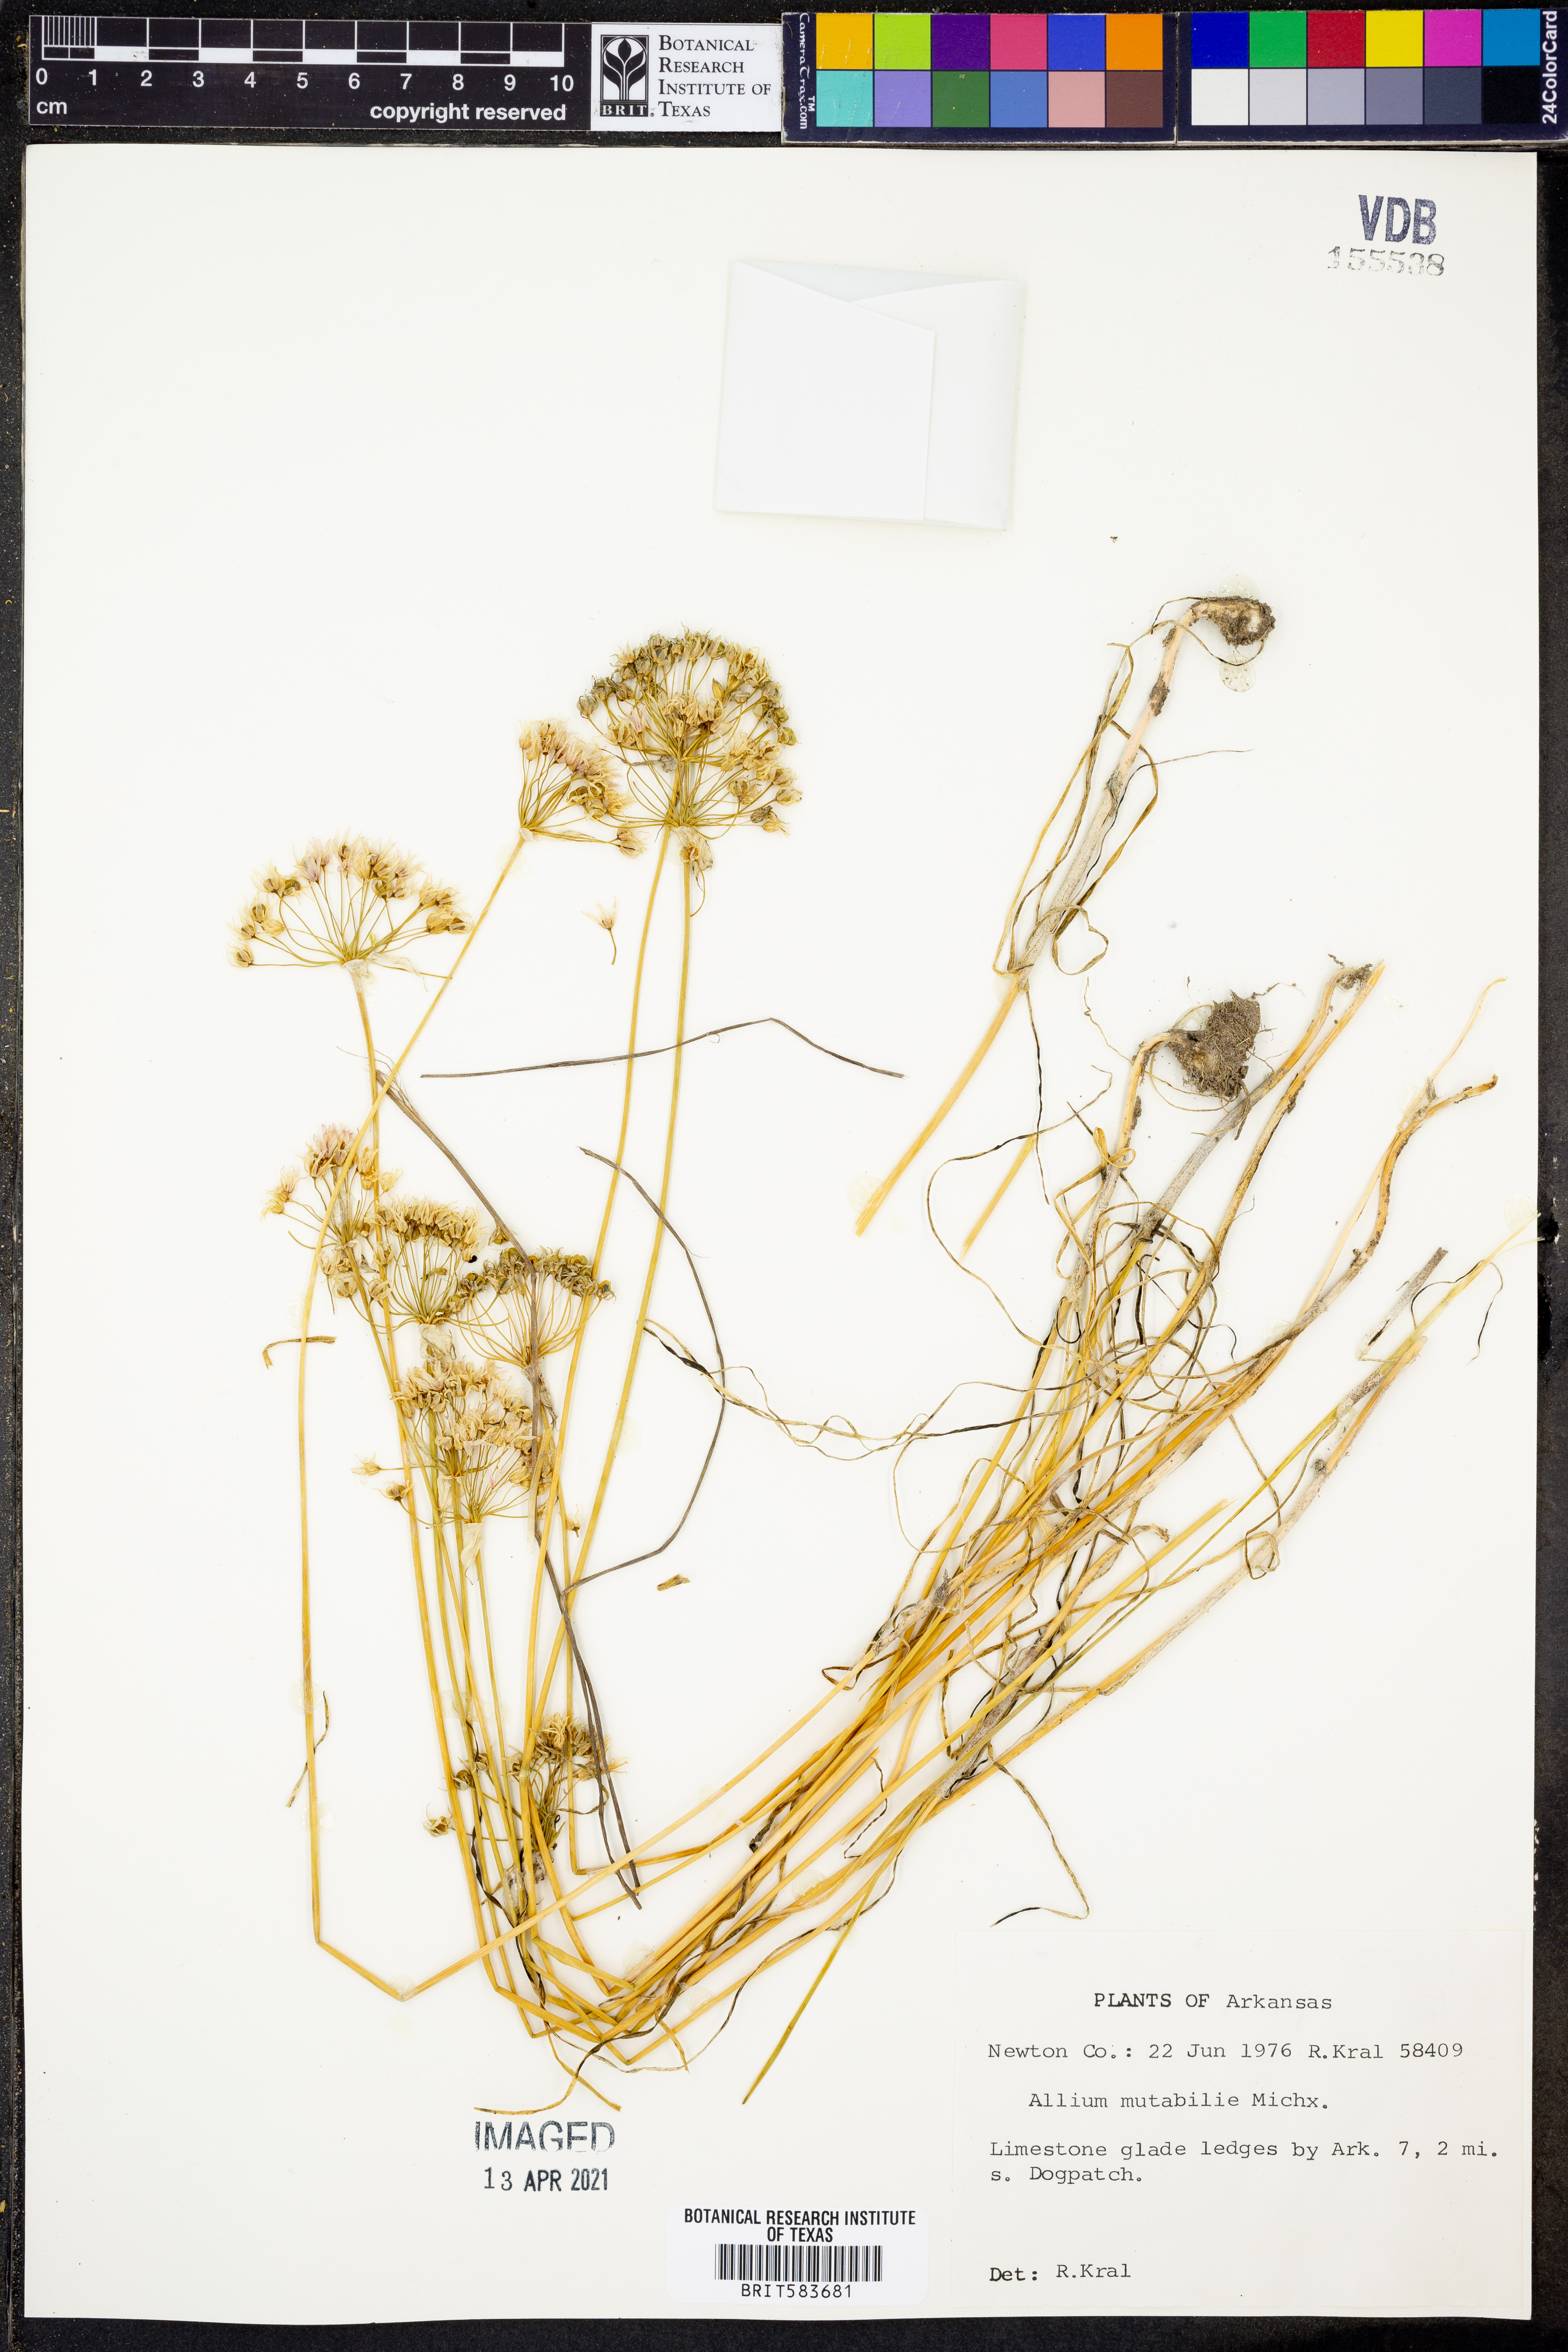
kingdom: Plantae
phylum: Tracheophyta
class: Liliopsida
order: Asparagales
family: Amaryllidaceae
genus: Allium
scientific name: Allium canadense
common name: Meadow garlic
